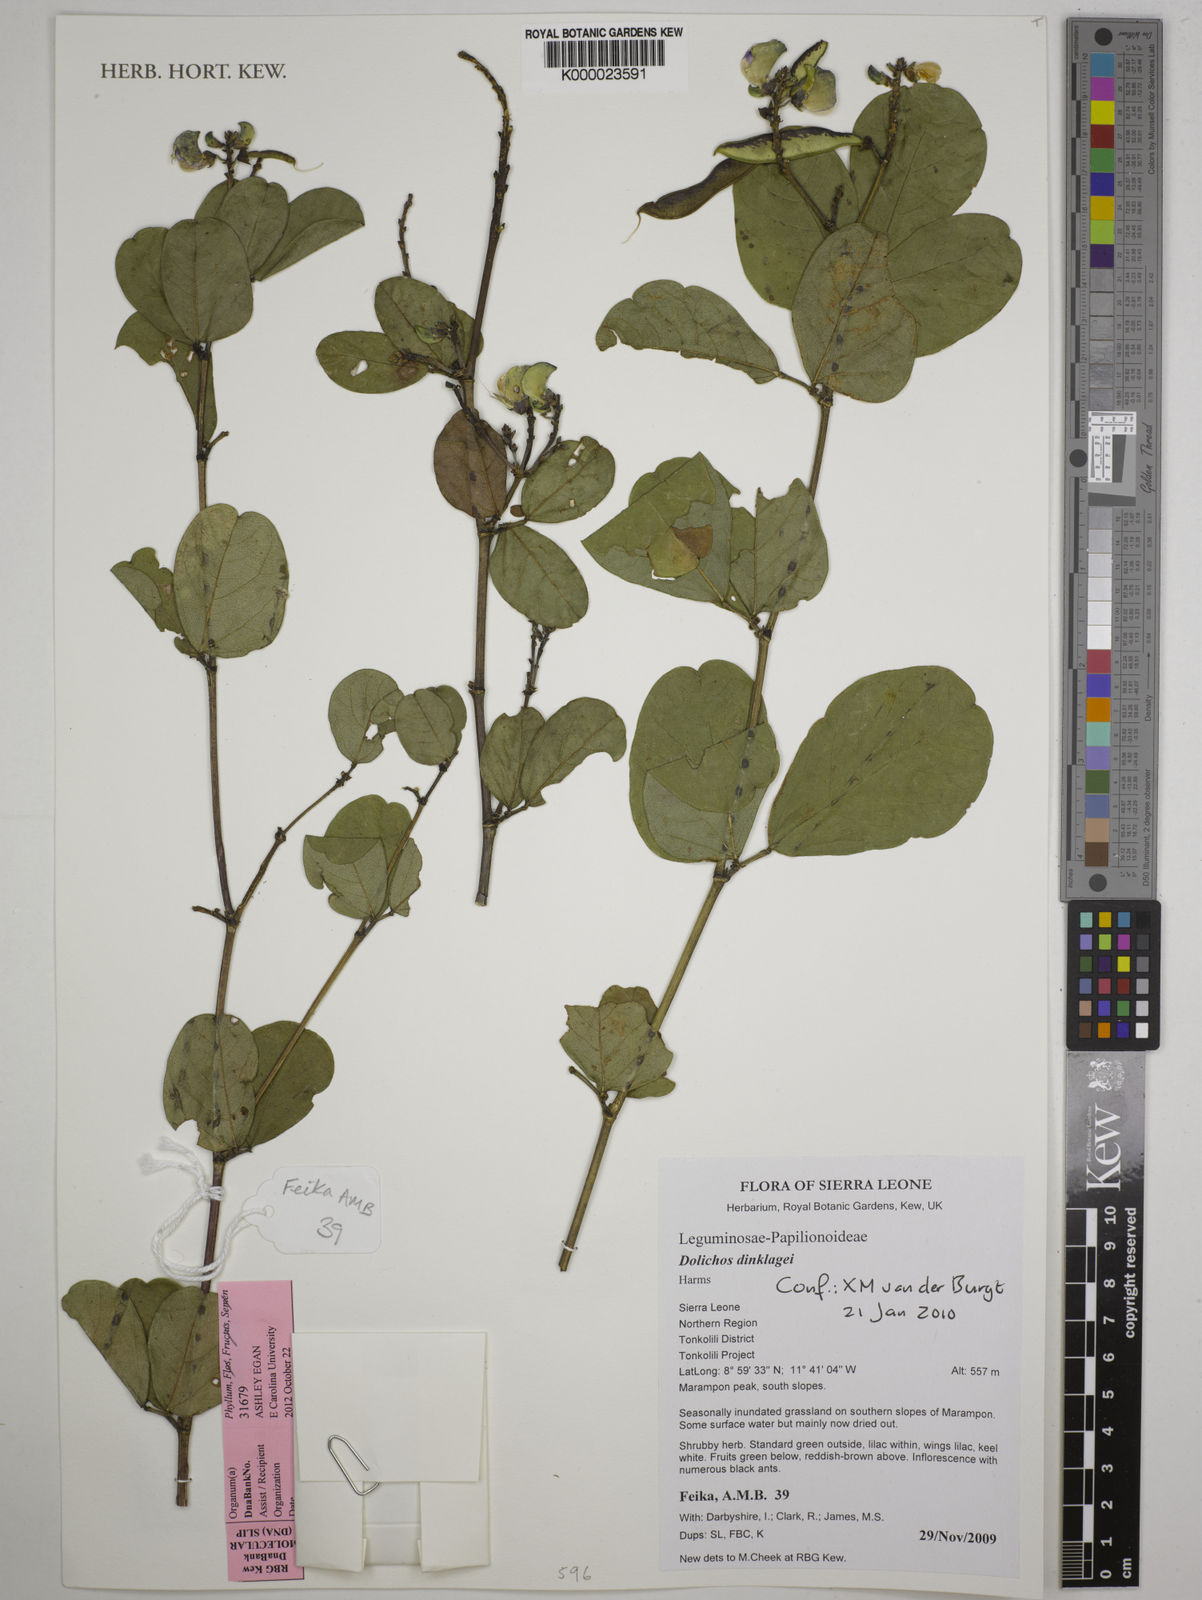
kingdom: Plantae
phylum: Tracheophyta
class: Magnoliopsida
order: Fabales
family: Fabaceae
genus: Dolichos
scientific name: Dolichos dinklagei
